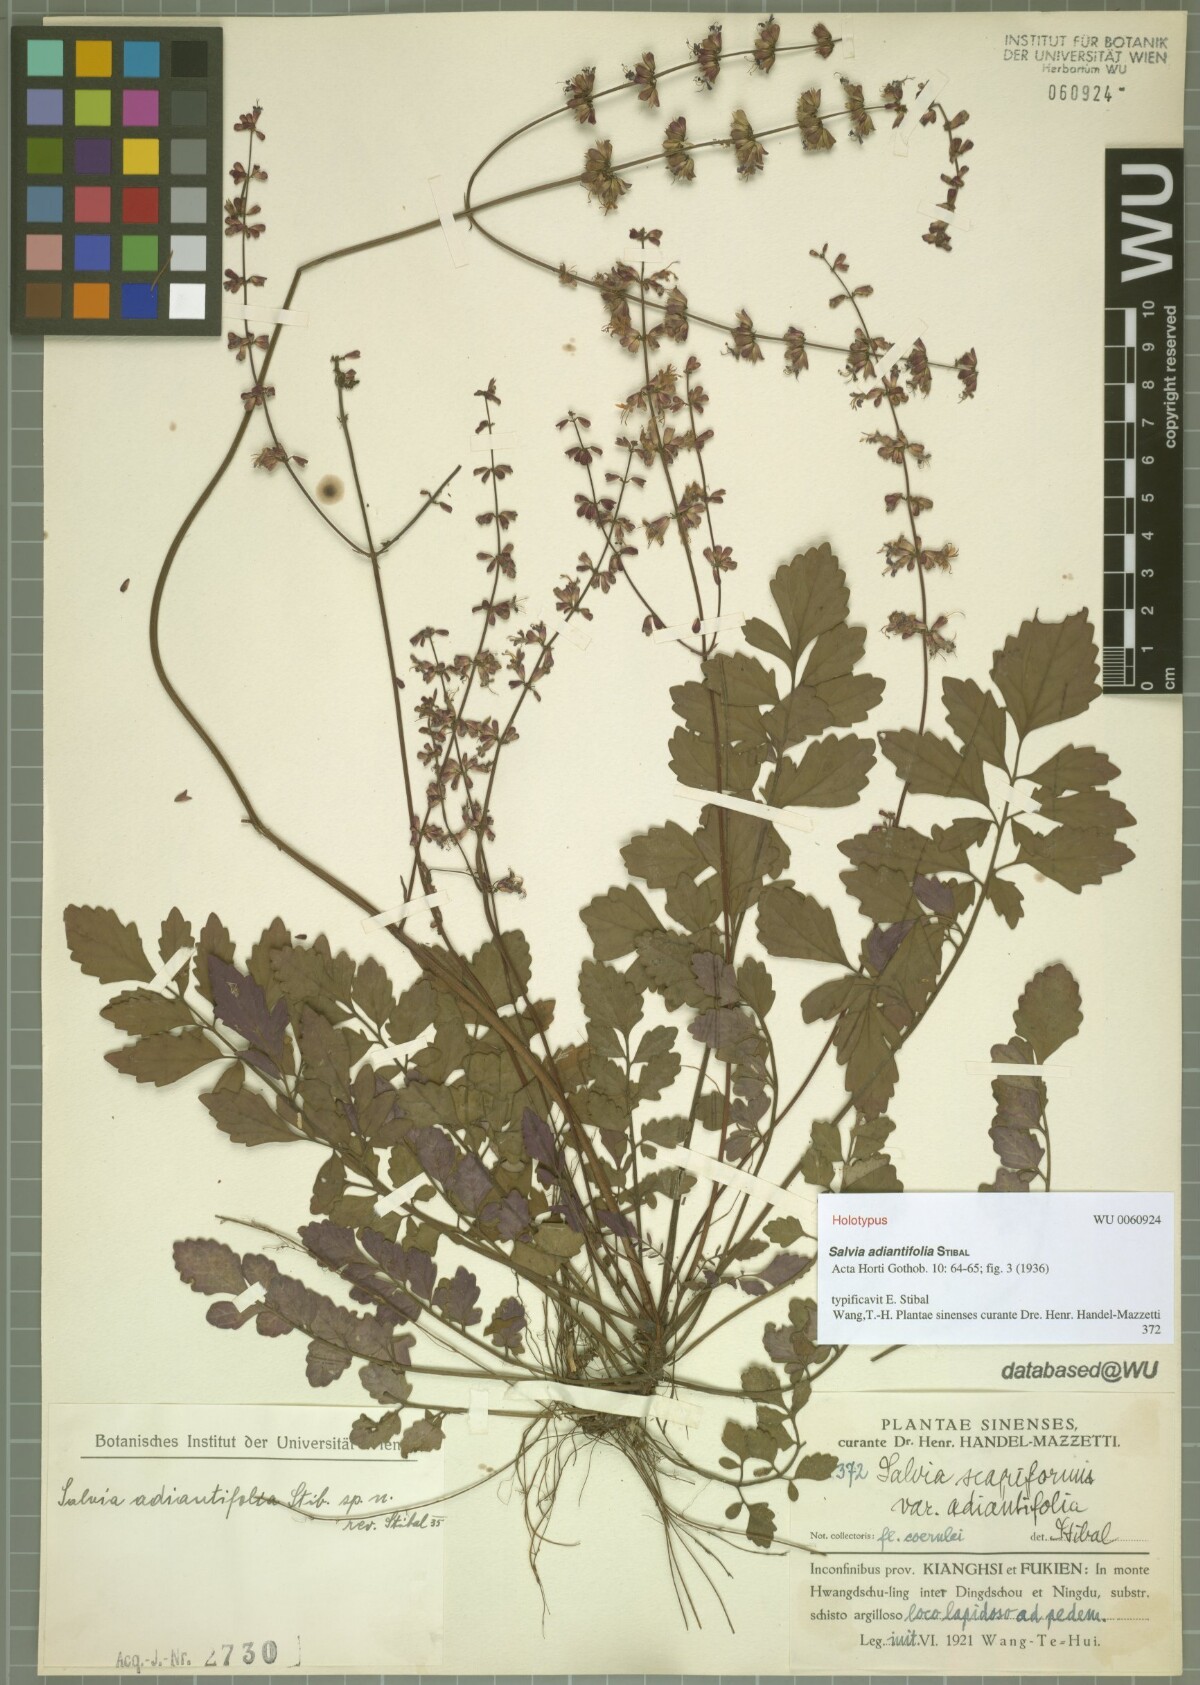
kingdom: Plantae
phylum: Tracheophyta
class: Magnoliopsida
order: Lamiales
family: Lamiaceae
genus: Salvia
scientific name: Salvia adiantifolia
